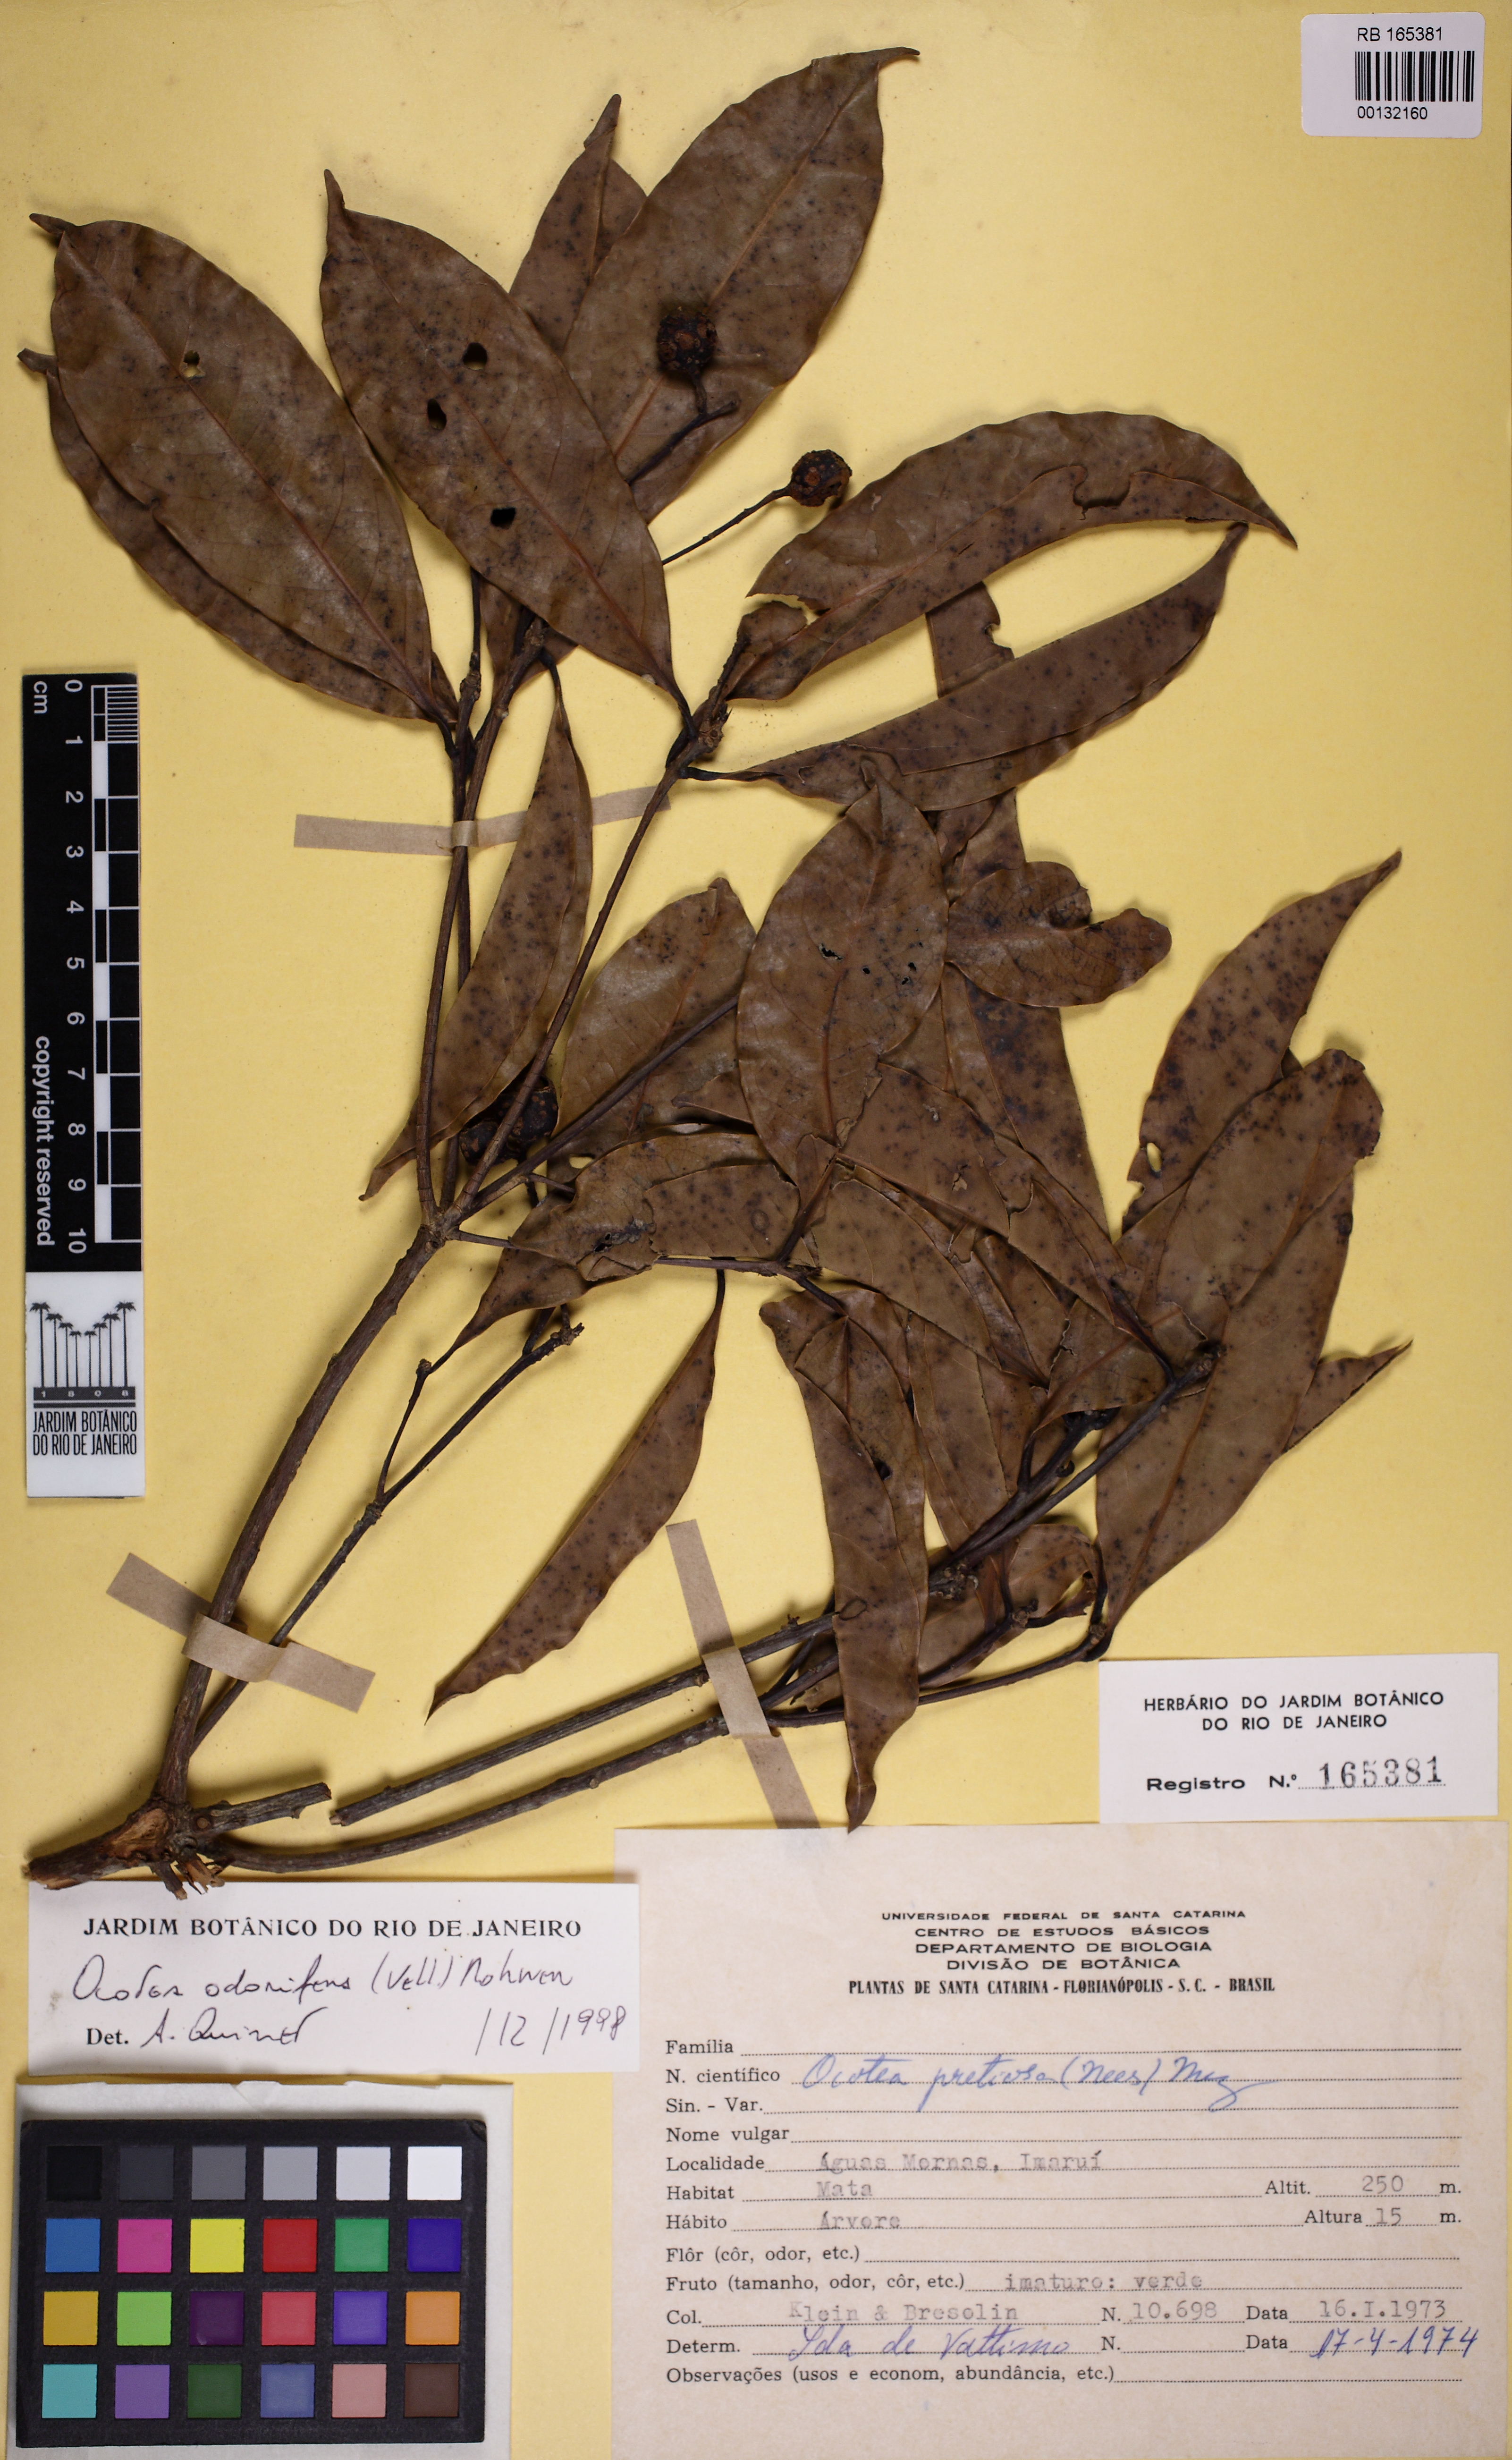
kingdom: Plantae
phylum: Tracheophyta
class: Magnoliopsida
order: Laurales
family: Lauraceae
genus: Mespilodaphne
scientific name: Mespilodaphne quixos
